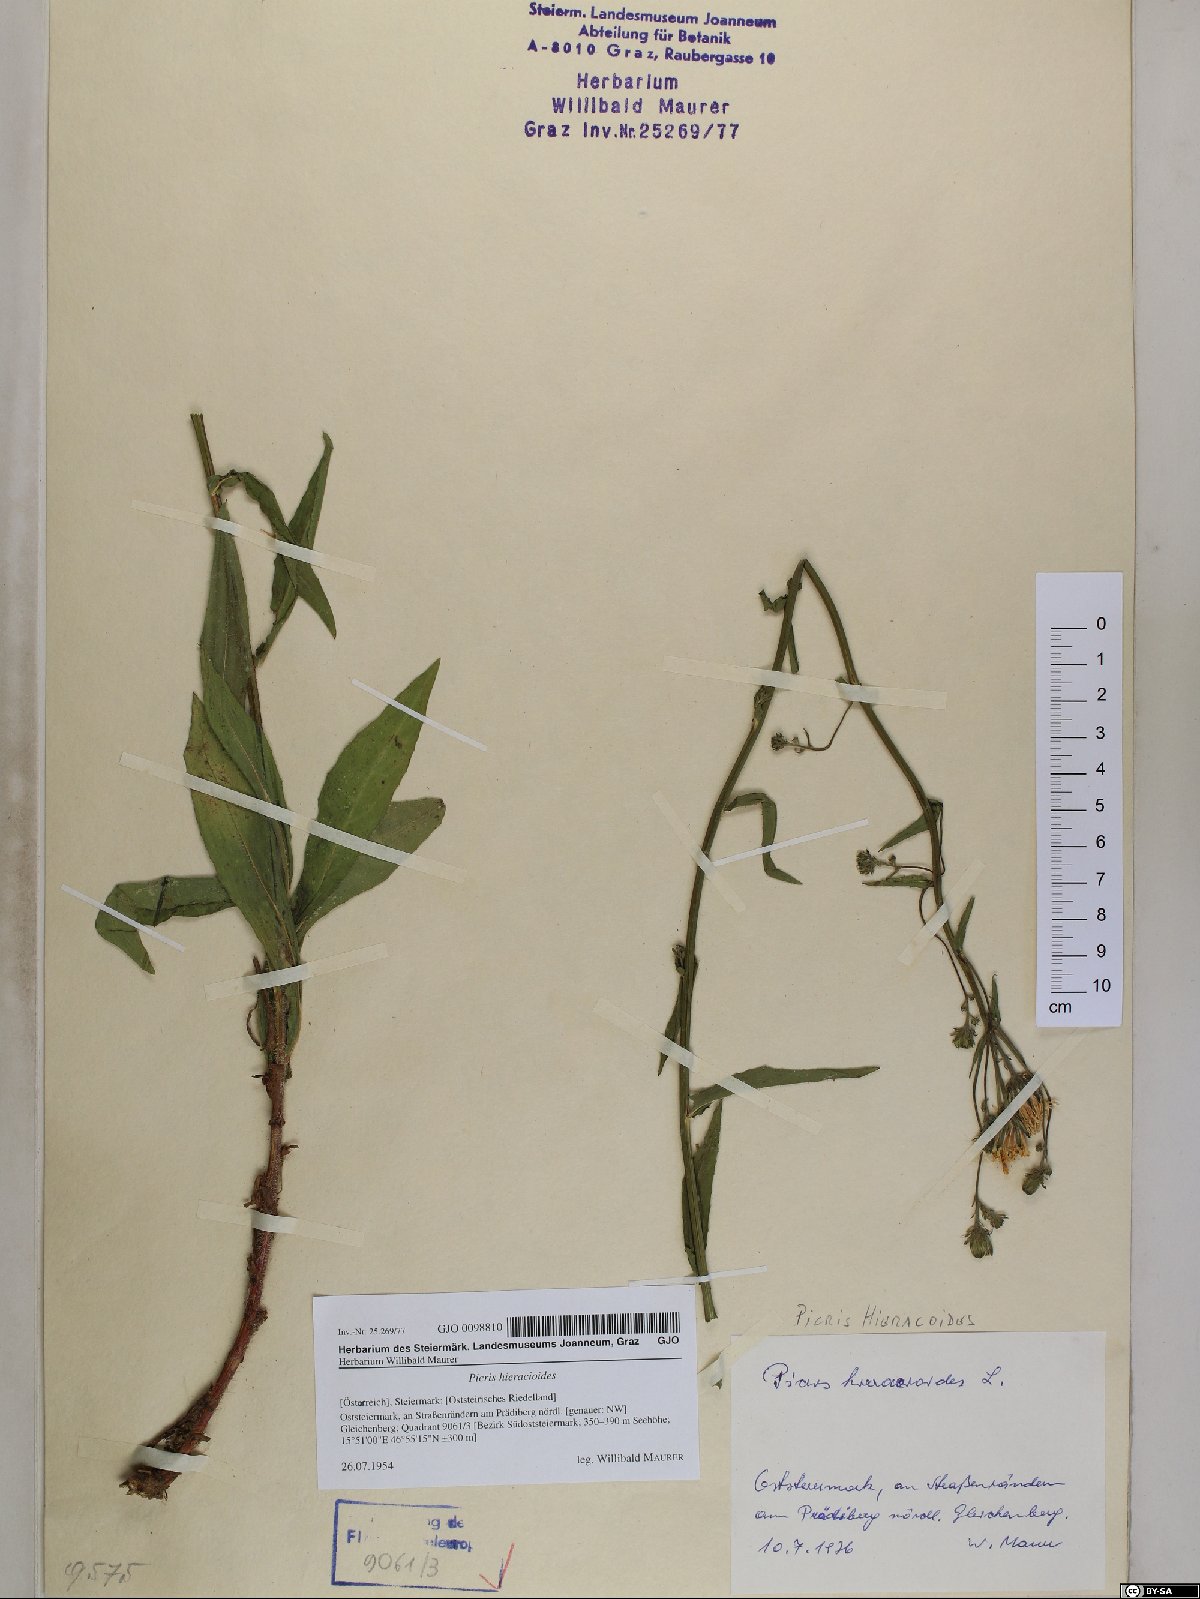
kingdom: Plantae
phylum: Tracheophyta
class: Magnoliopsida
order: Asterales
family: Asteraceae
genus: Picris
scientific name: Picris hieracioides
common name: Hawkweed oxtongue
